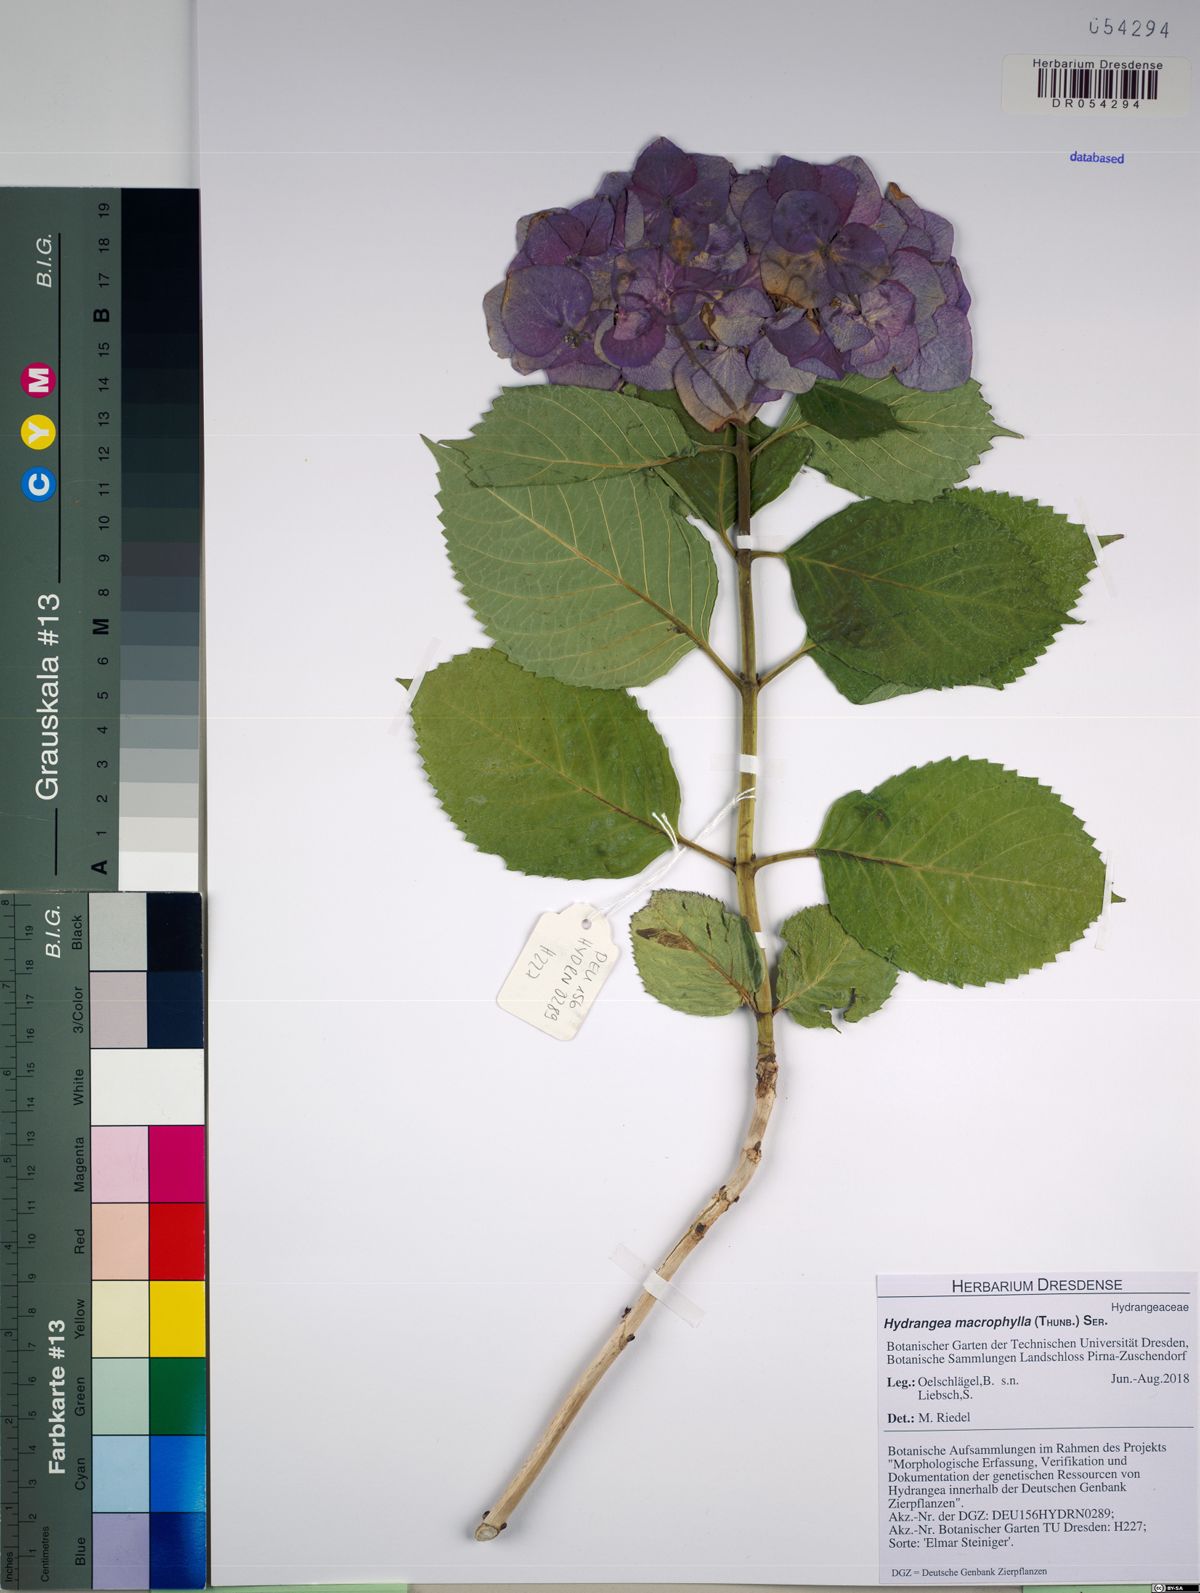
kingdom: Plantae
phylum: Tracheophyta
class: Magnoliopsida
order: Cornales
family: Hydrangeaceae
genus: Hydrangea
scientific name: Hydrangea macrophylla
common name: Hydrangea
